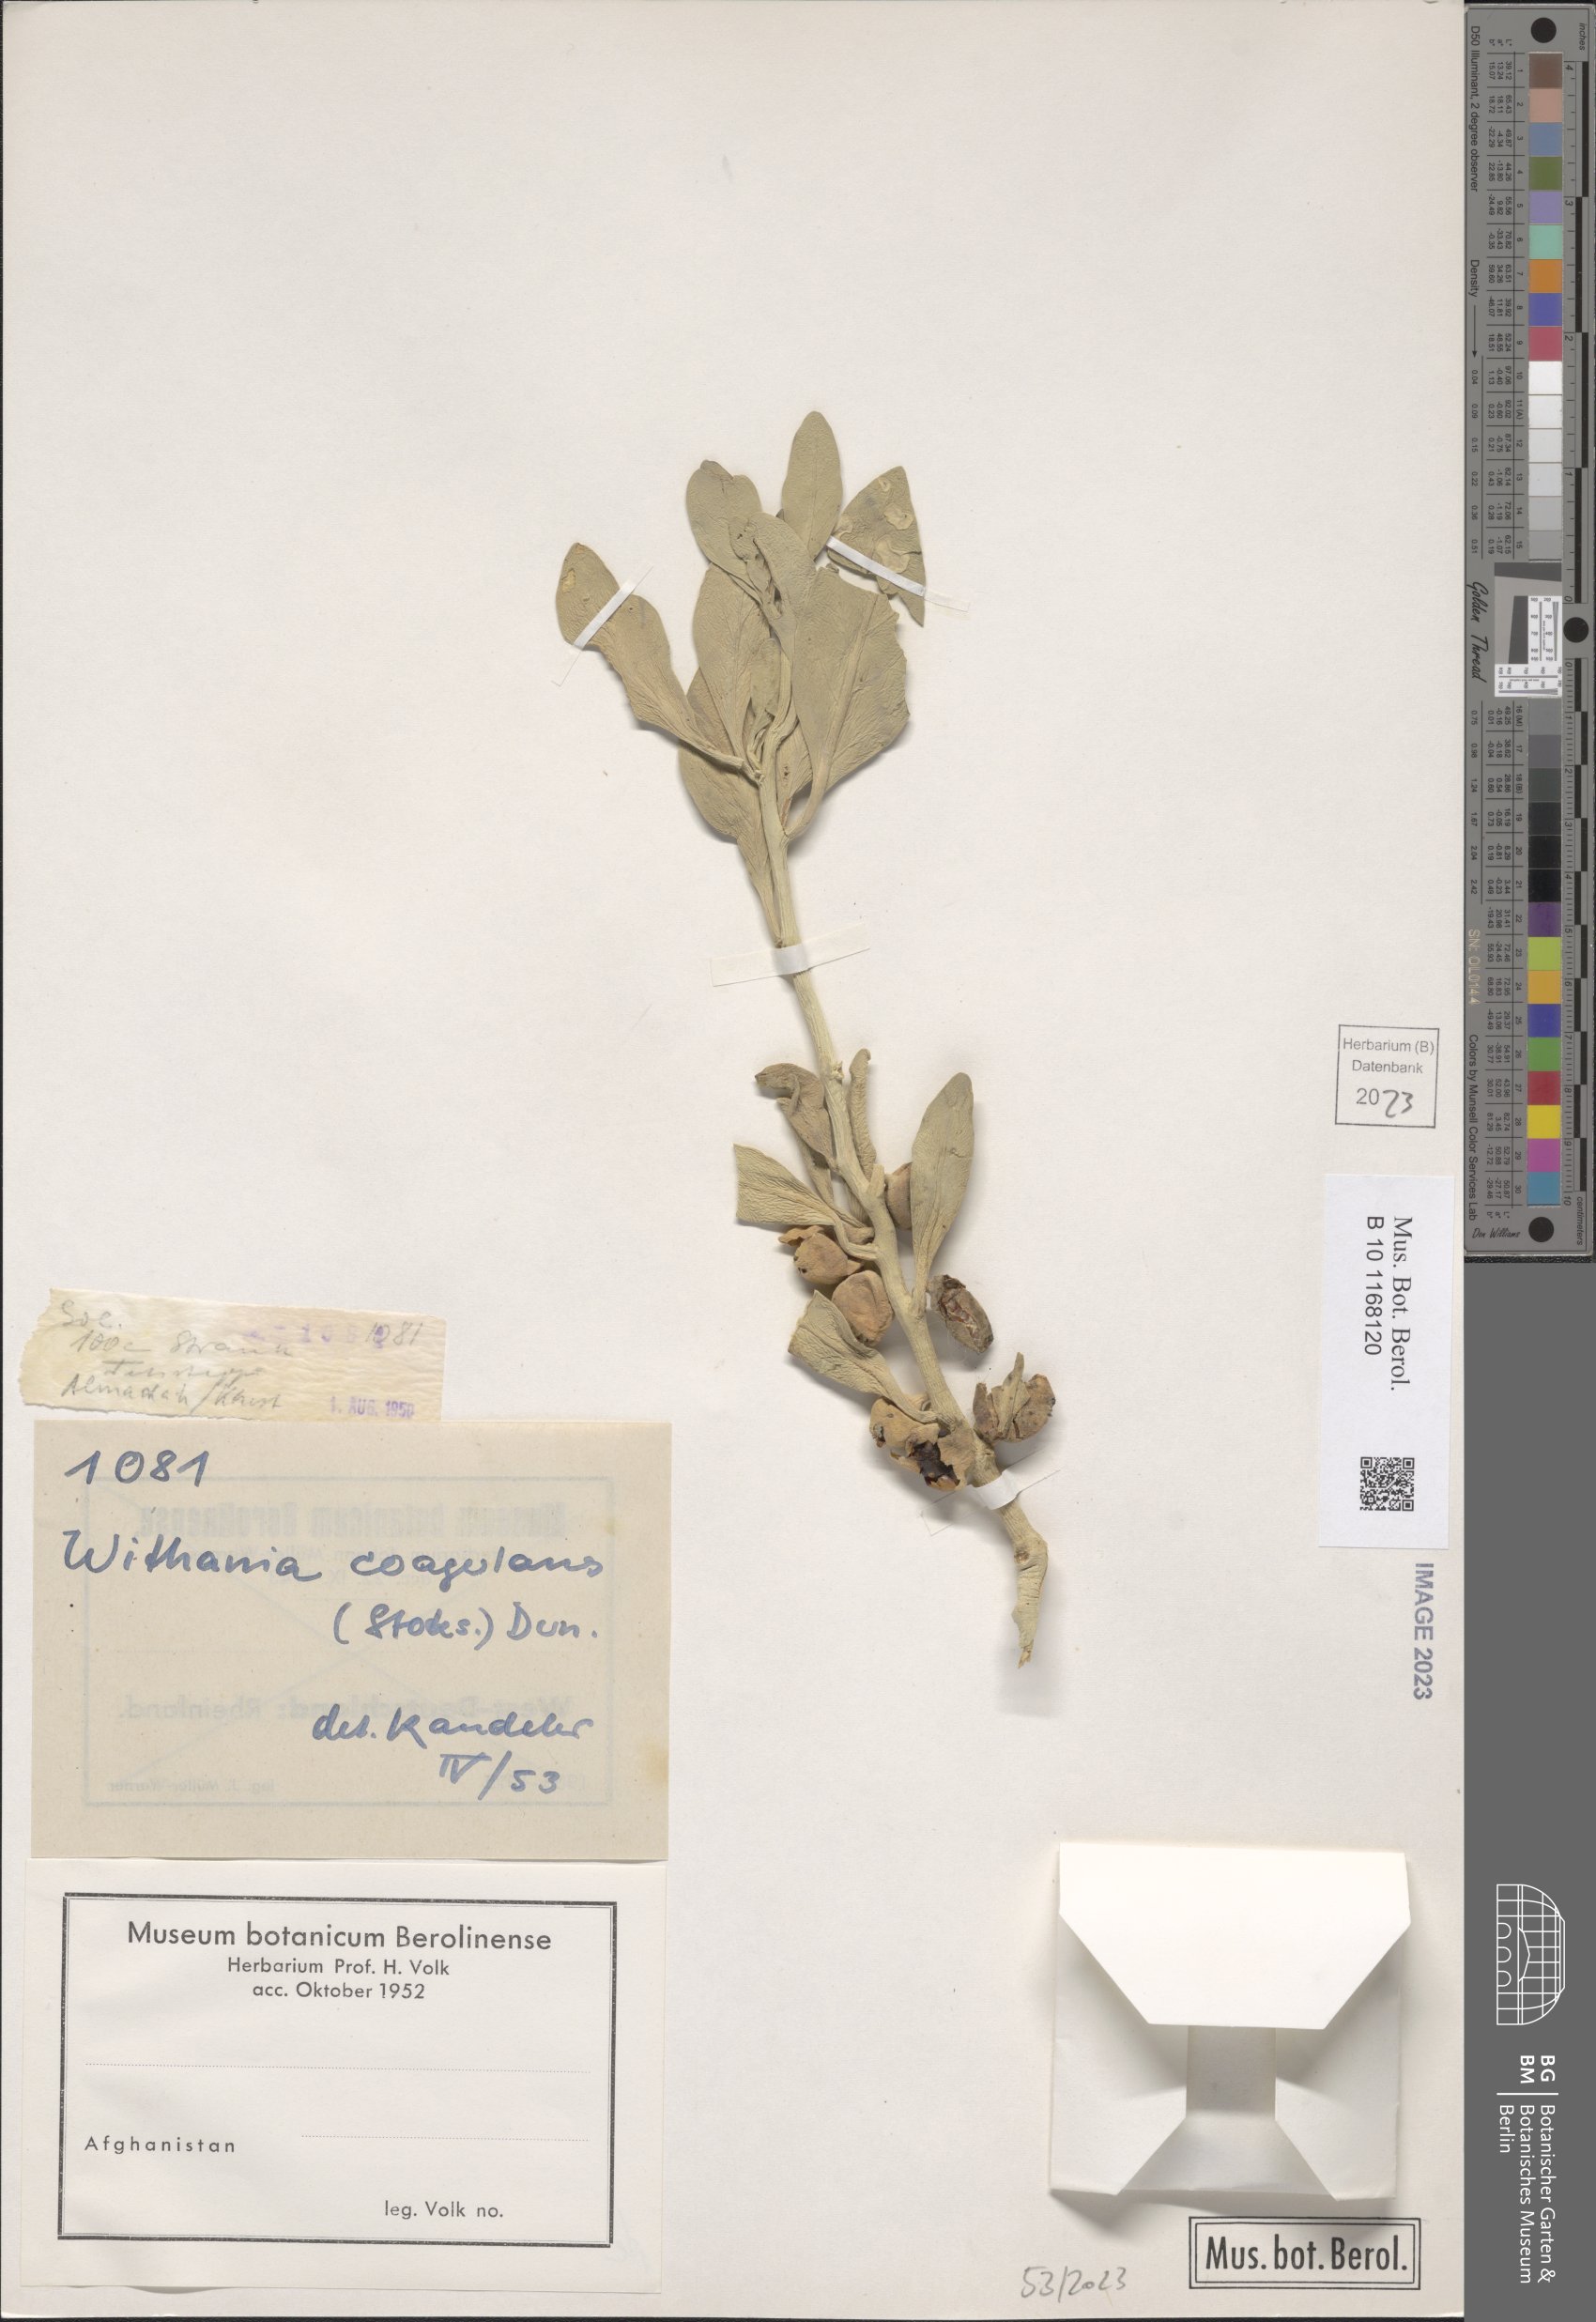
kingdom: Plantae
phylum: Tracheophyta
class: Magnoliopsida
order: Solanales
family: Solanaceae
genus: Withania
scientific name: Withania coagulans
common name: Vegetable rennet
